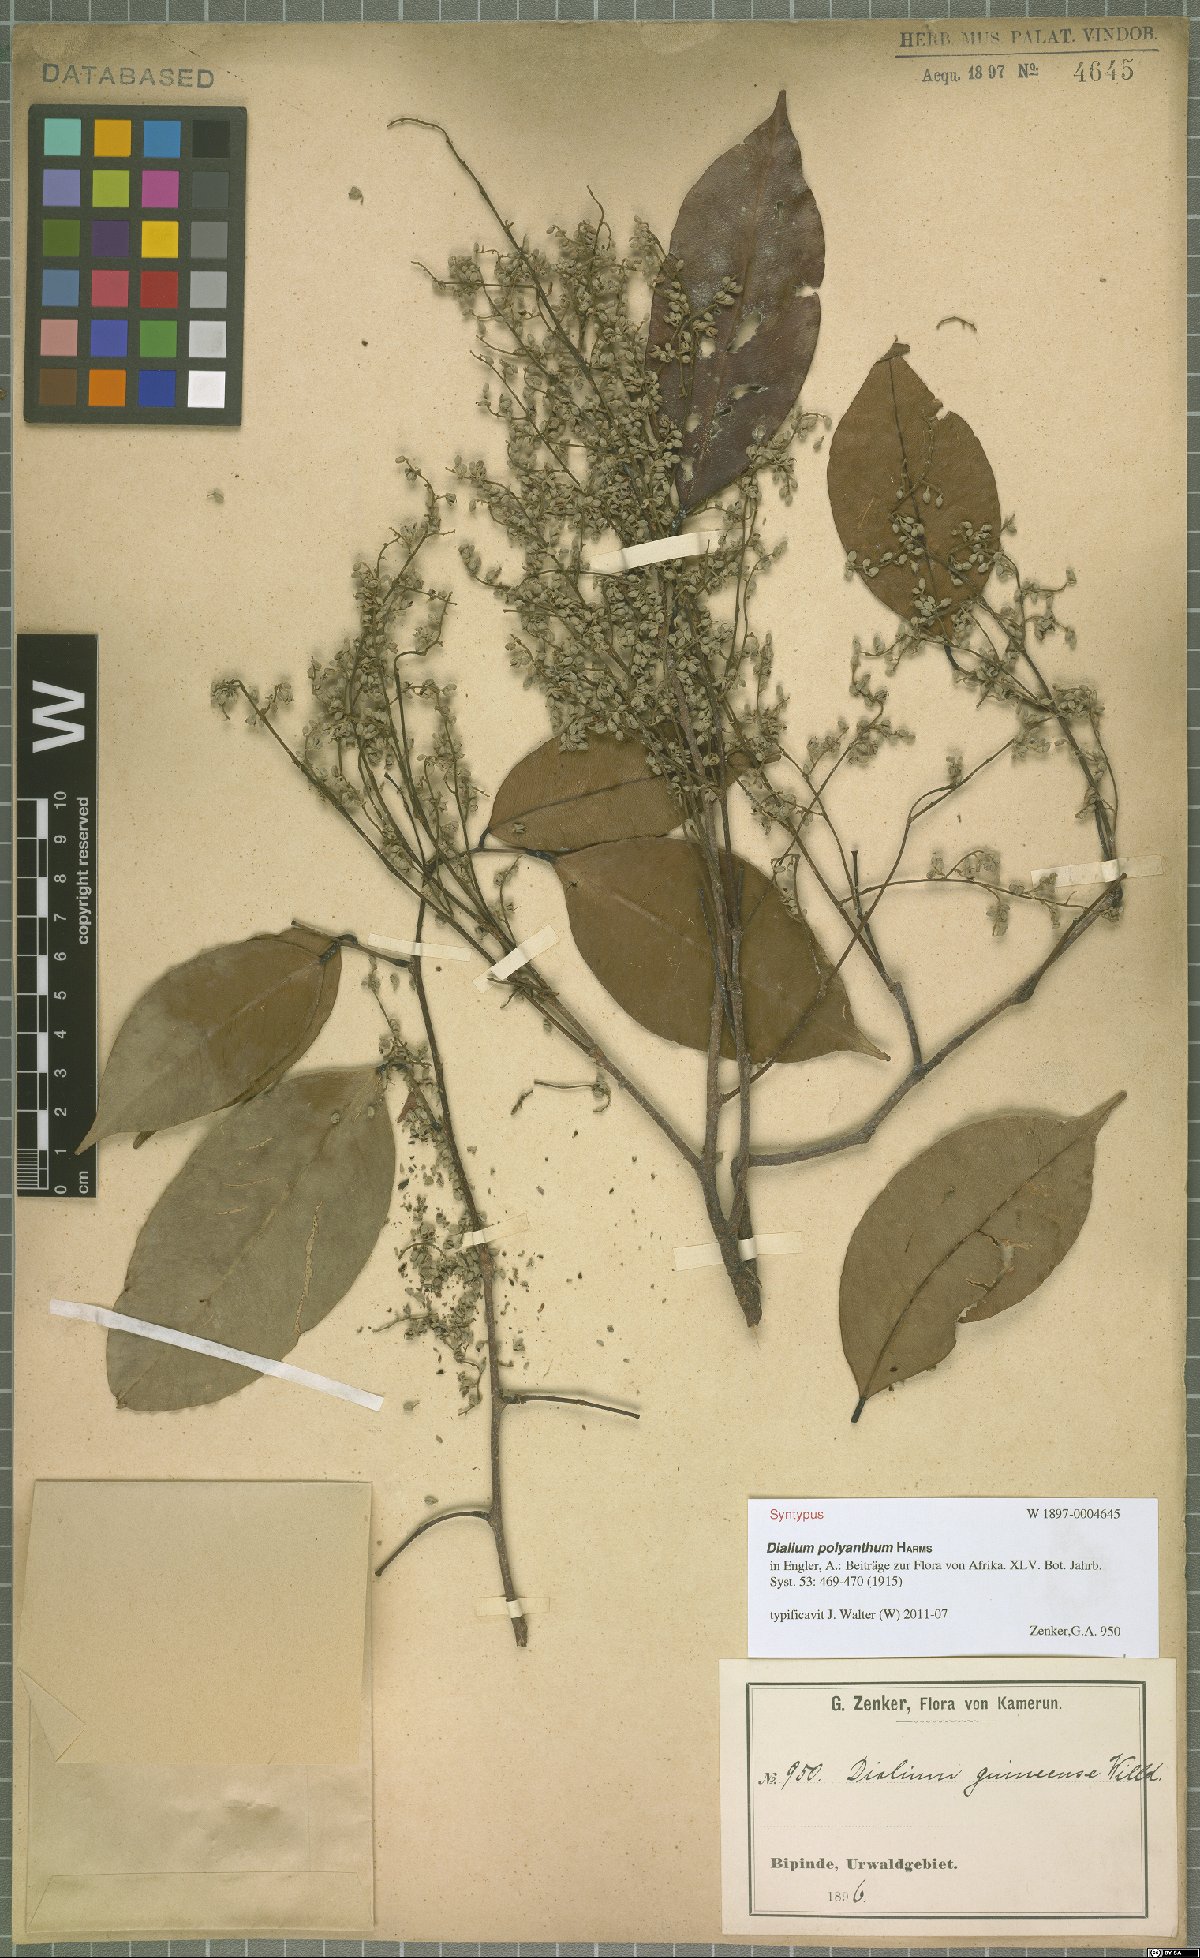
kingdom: Plantae
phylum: Tracheophyta
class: Magnoliopsida
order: Fabales
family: Fabaceae
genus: Dialium
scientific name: Dialium polyanthum
